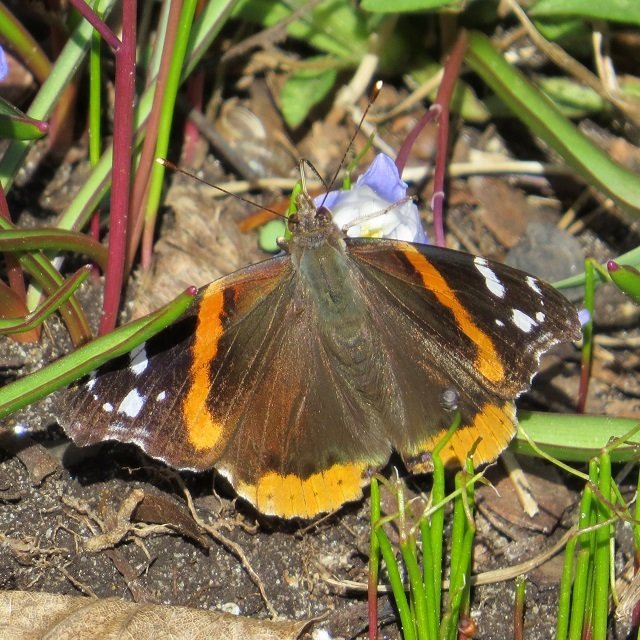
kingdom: Animalia
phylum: Arthropoda
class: Insecta
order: Lepidoptera
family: Nymphalidae
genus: Vanessa
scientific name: Vanessa atalanta
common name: Red Admiral
